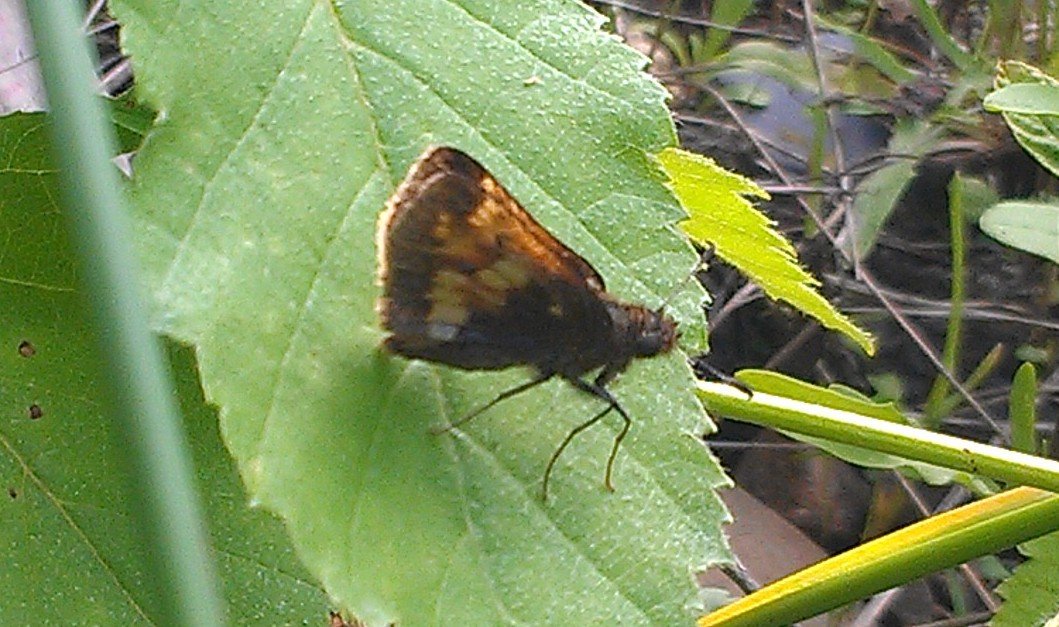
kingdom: Animalia
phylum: Arthropoda
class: Insecta
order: Lepidoptera
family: Hesperiidae
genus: Lon
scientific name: Lon hobomok
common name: Hobomok Skipper
